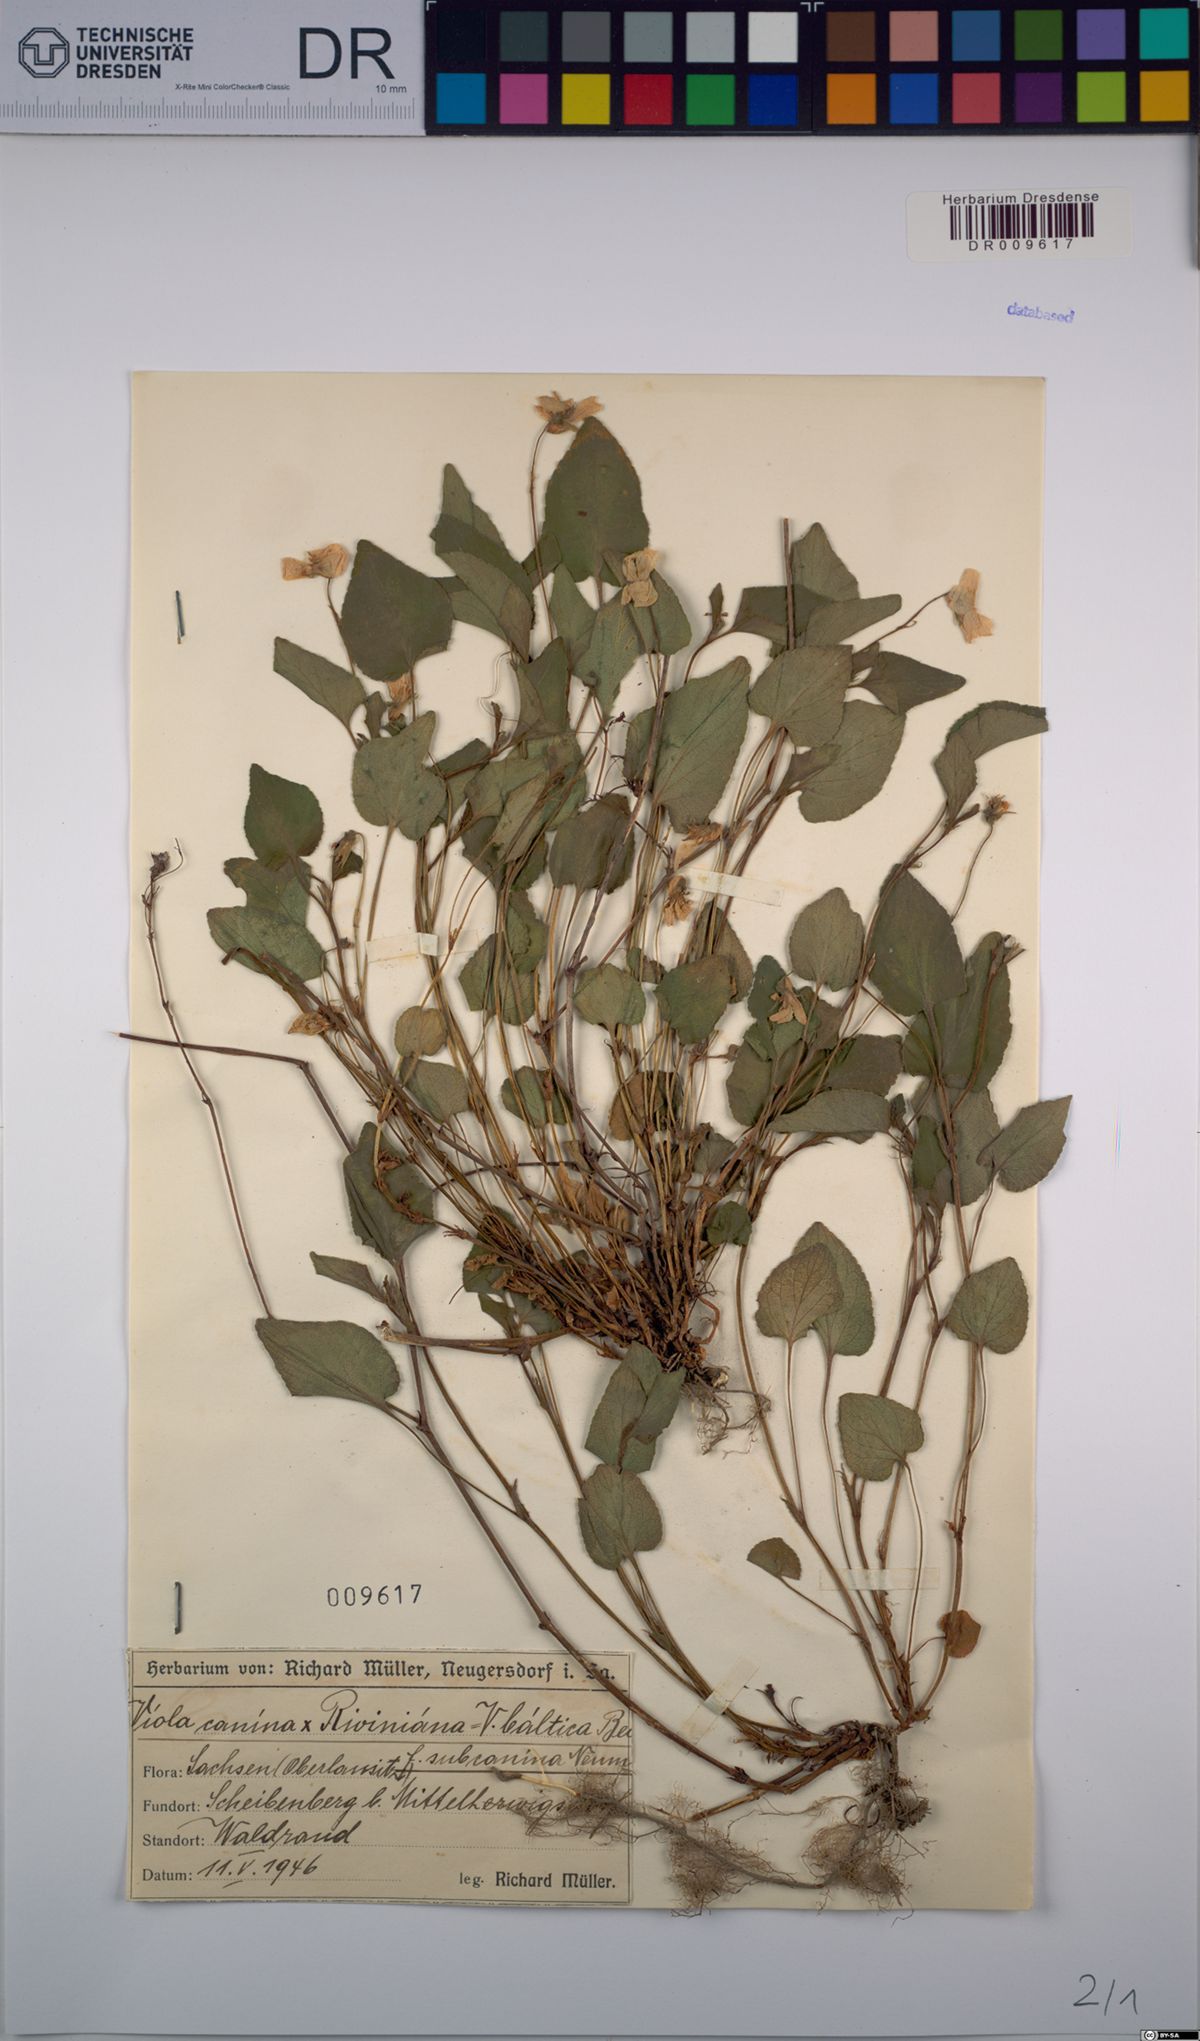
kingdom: Plantae
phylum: Tracheophyta
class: Magnoliopsida
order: Malpighiales
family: Violaceae
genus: Viola
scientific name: Viola riviniana
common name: Common dog-violet
